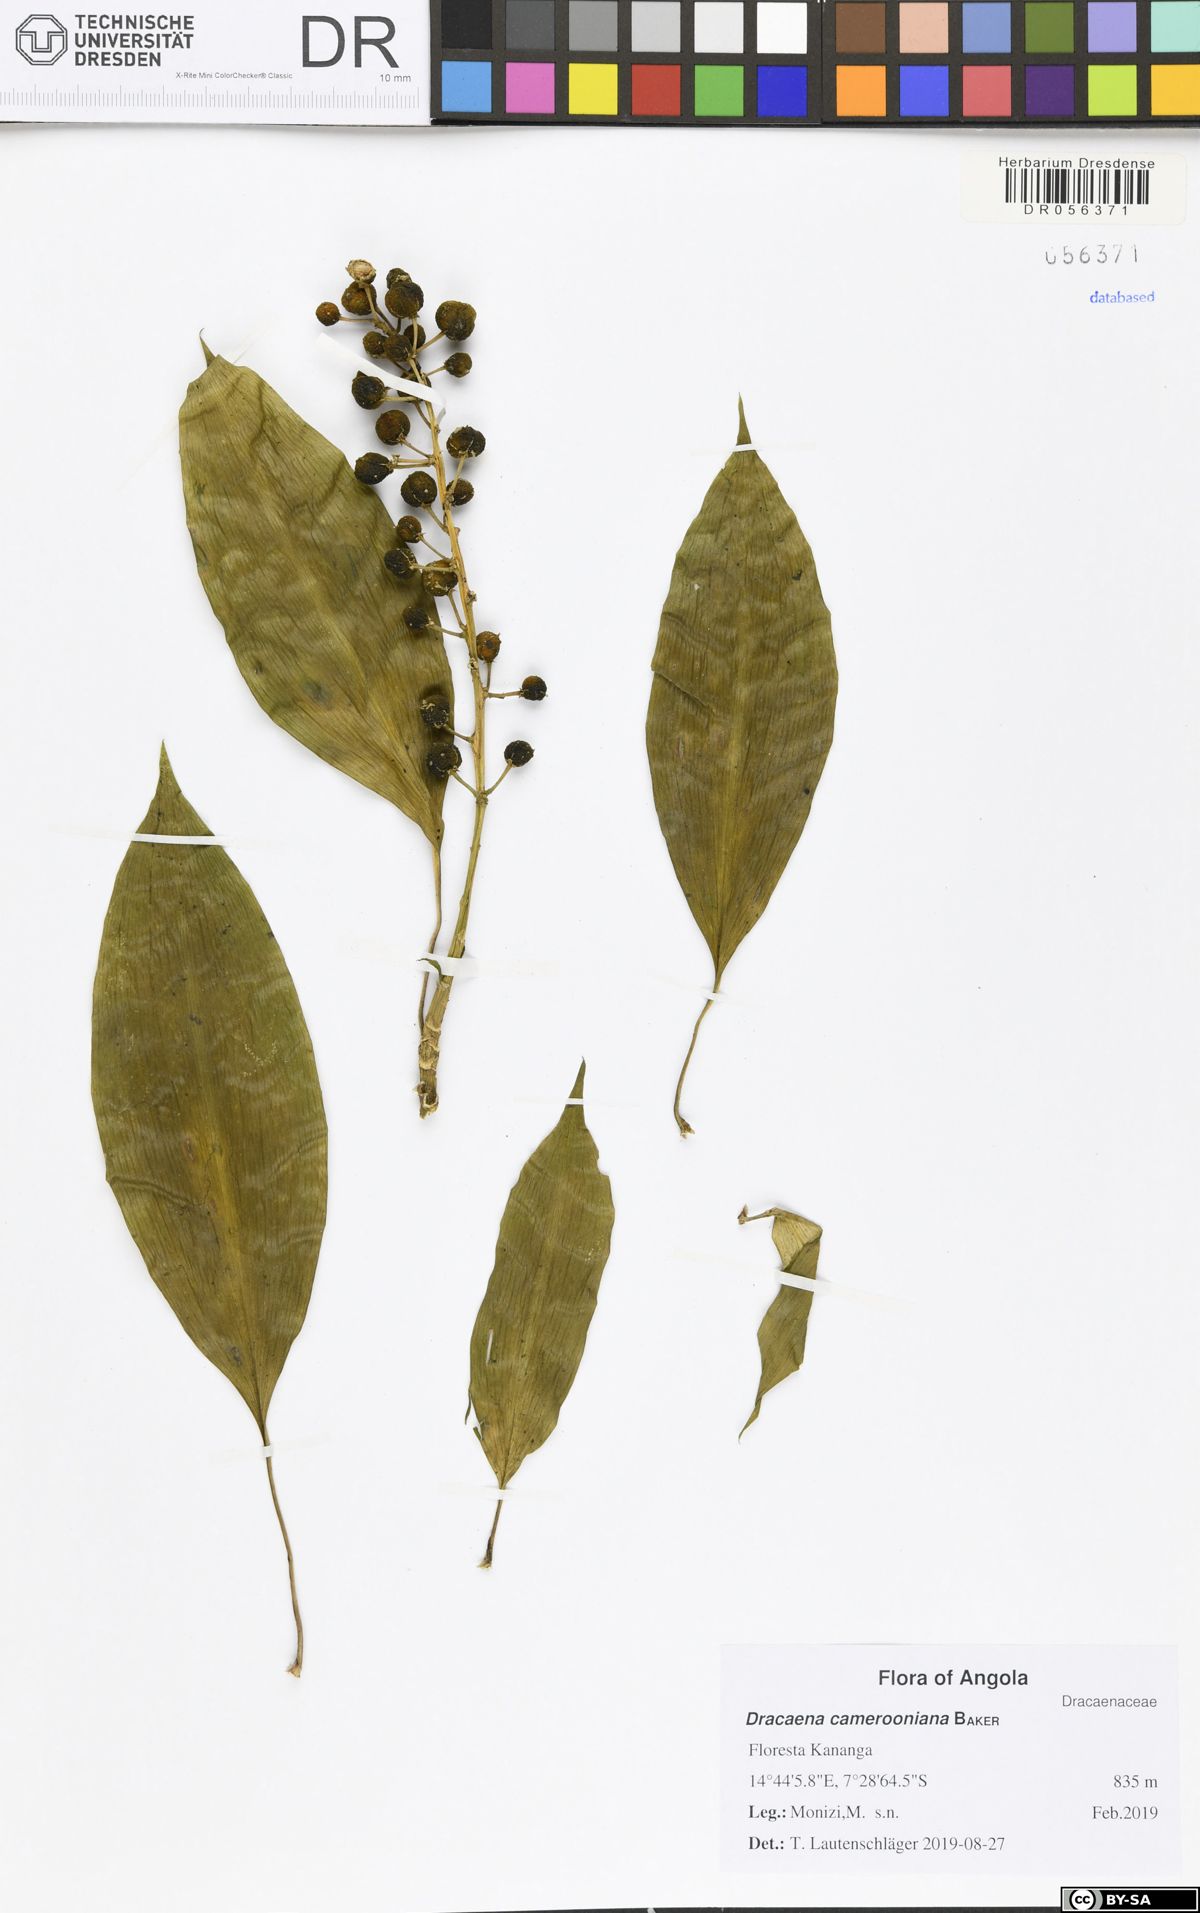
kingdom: Plantae
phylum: Tracheophyta
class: Liliopsida
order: Asparagales
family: Asparagaceae
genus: Dracaena
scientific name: Dracaena camerooniana
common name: Dragon tree
